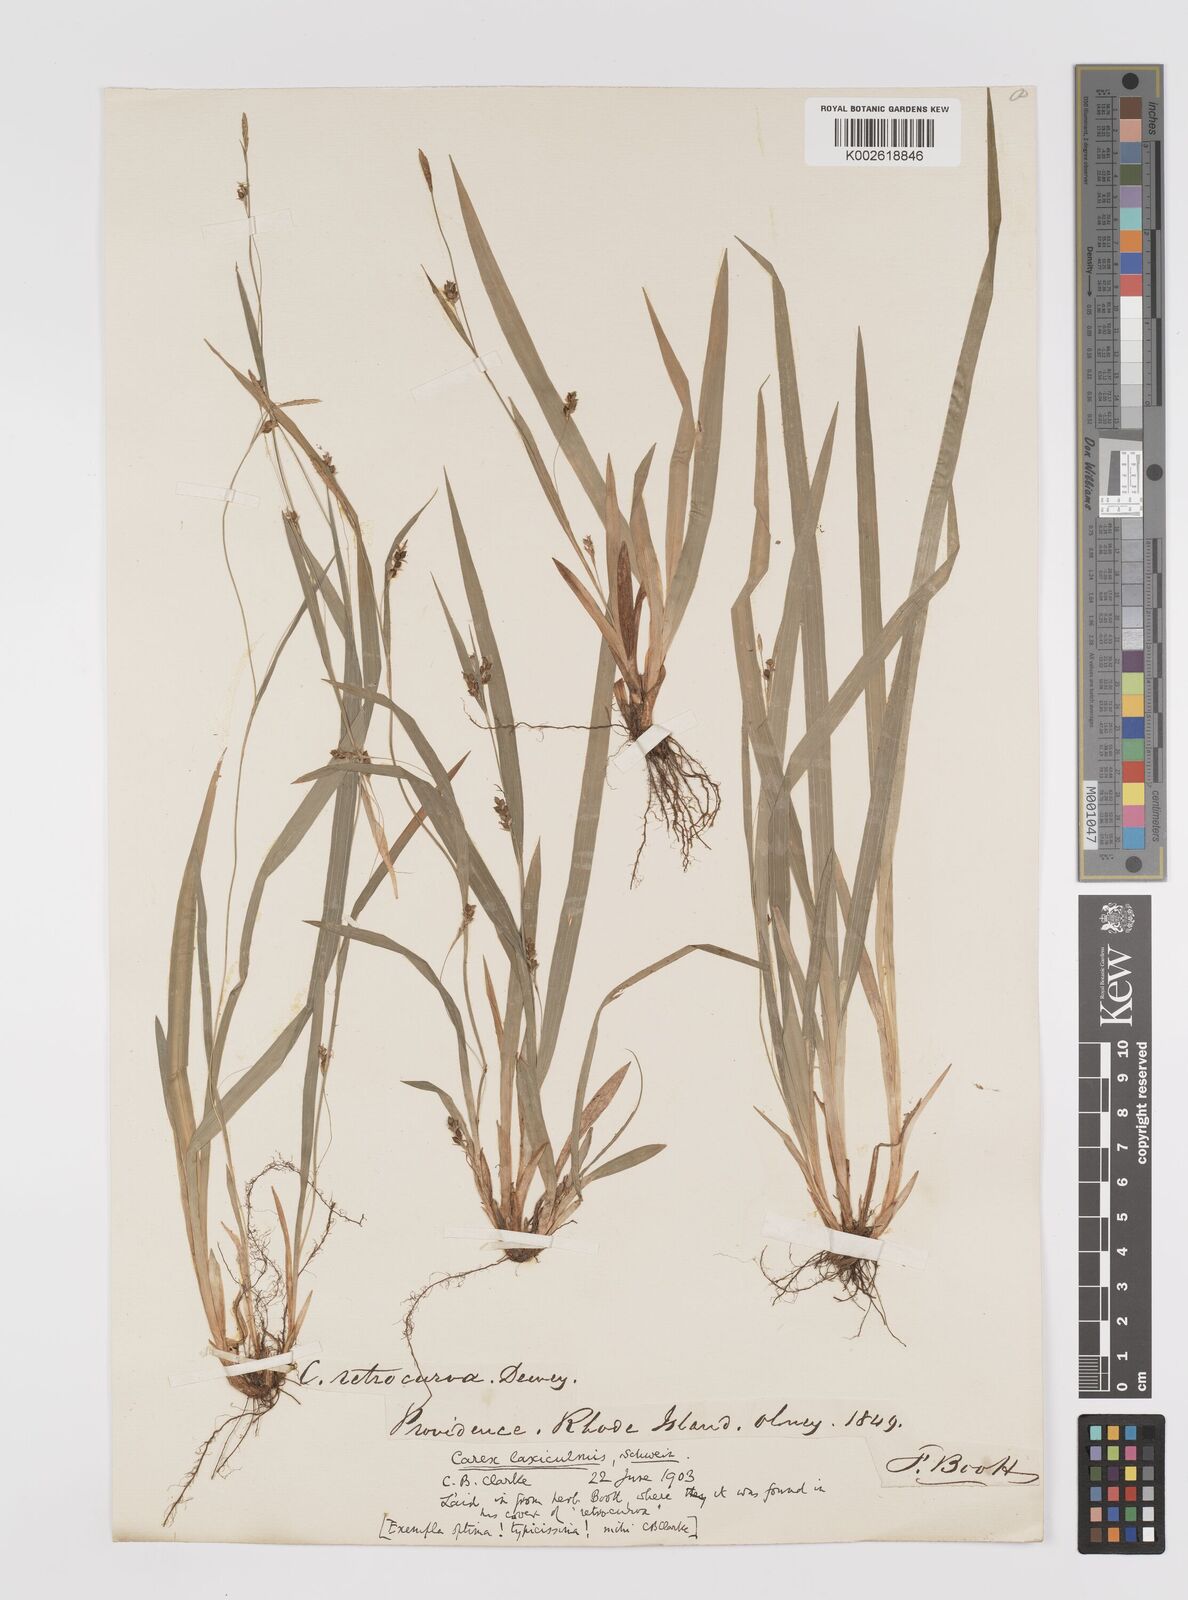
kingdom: Plantae
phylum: Tracheophyta
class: Liliopsida
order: Poales
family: Cyperaceae
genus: Carex
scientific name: Carex laxiculmis
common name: Spreading sedge
